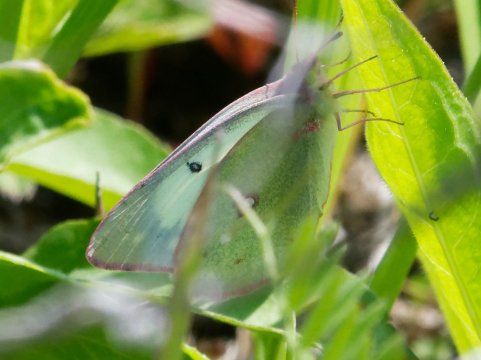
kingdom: Animalia
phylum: Arthropoda
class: Insecta
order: Lepidoptera
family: Pieridae
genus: Colias
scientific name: Colias philodice
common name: Clouded Sulphur
